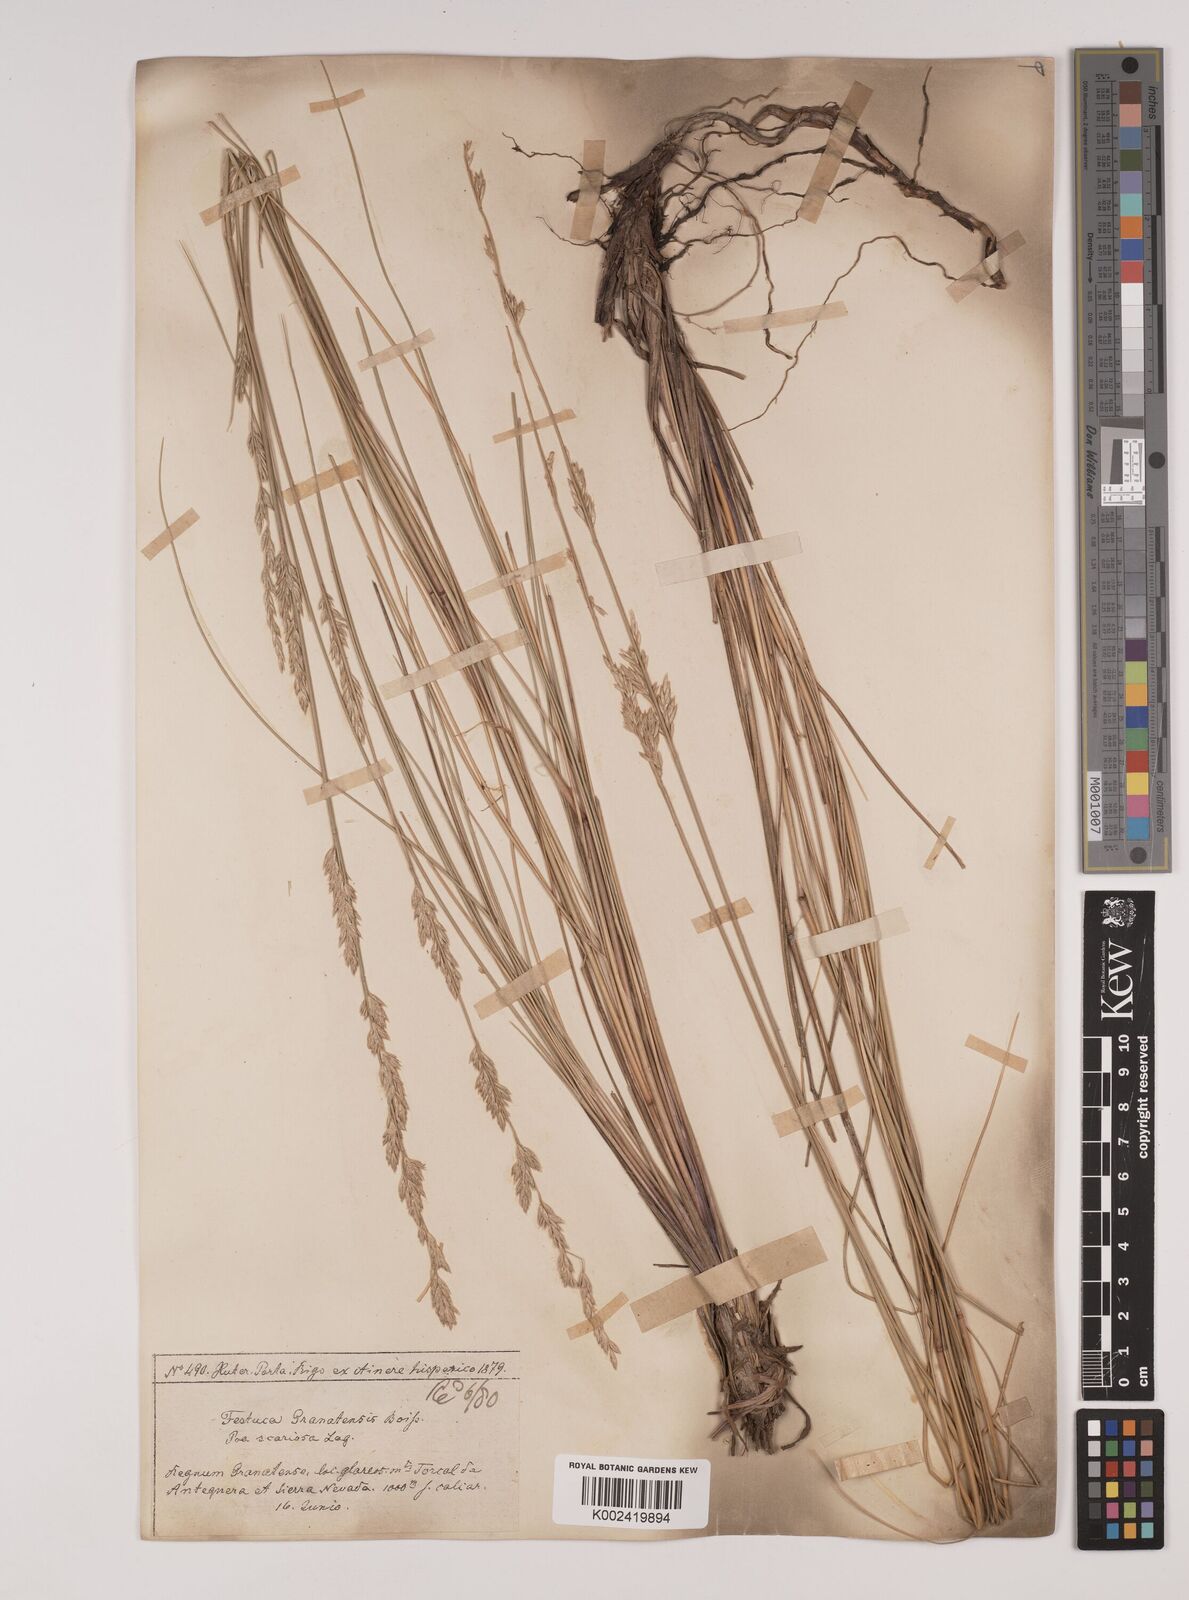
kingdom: Plantae
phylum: Tracheophyta
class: Liliopsida
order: Poales
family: Poaceae
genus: Festuca
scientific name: Festuca scariosa
